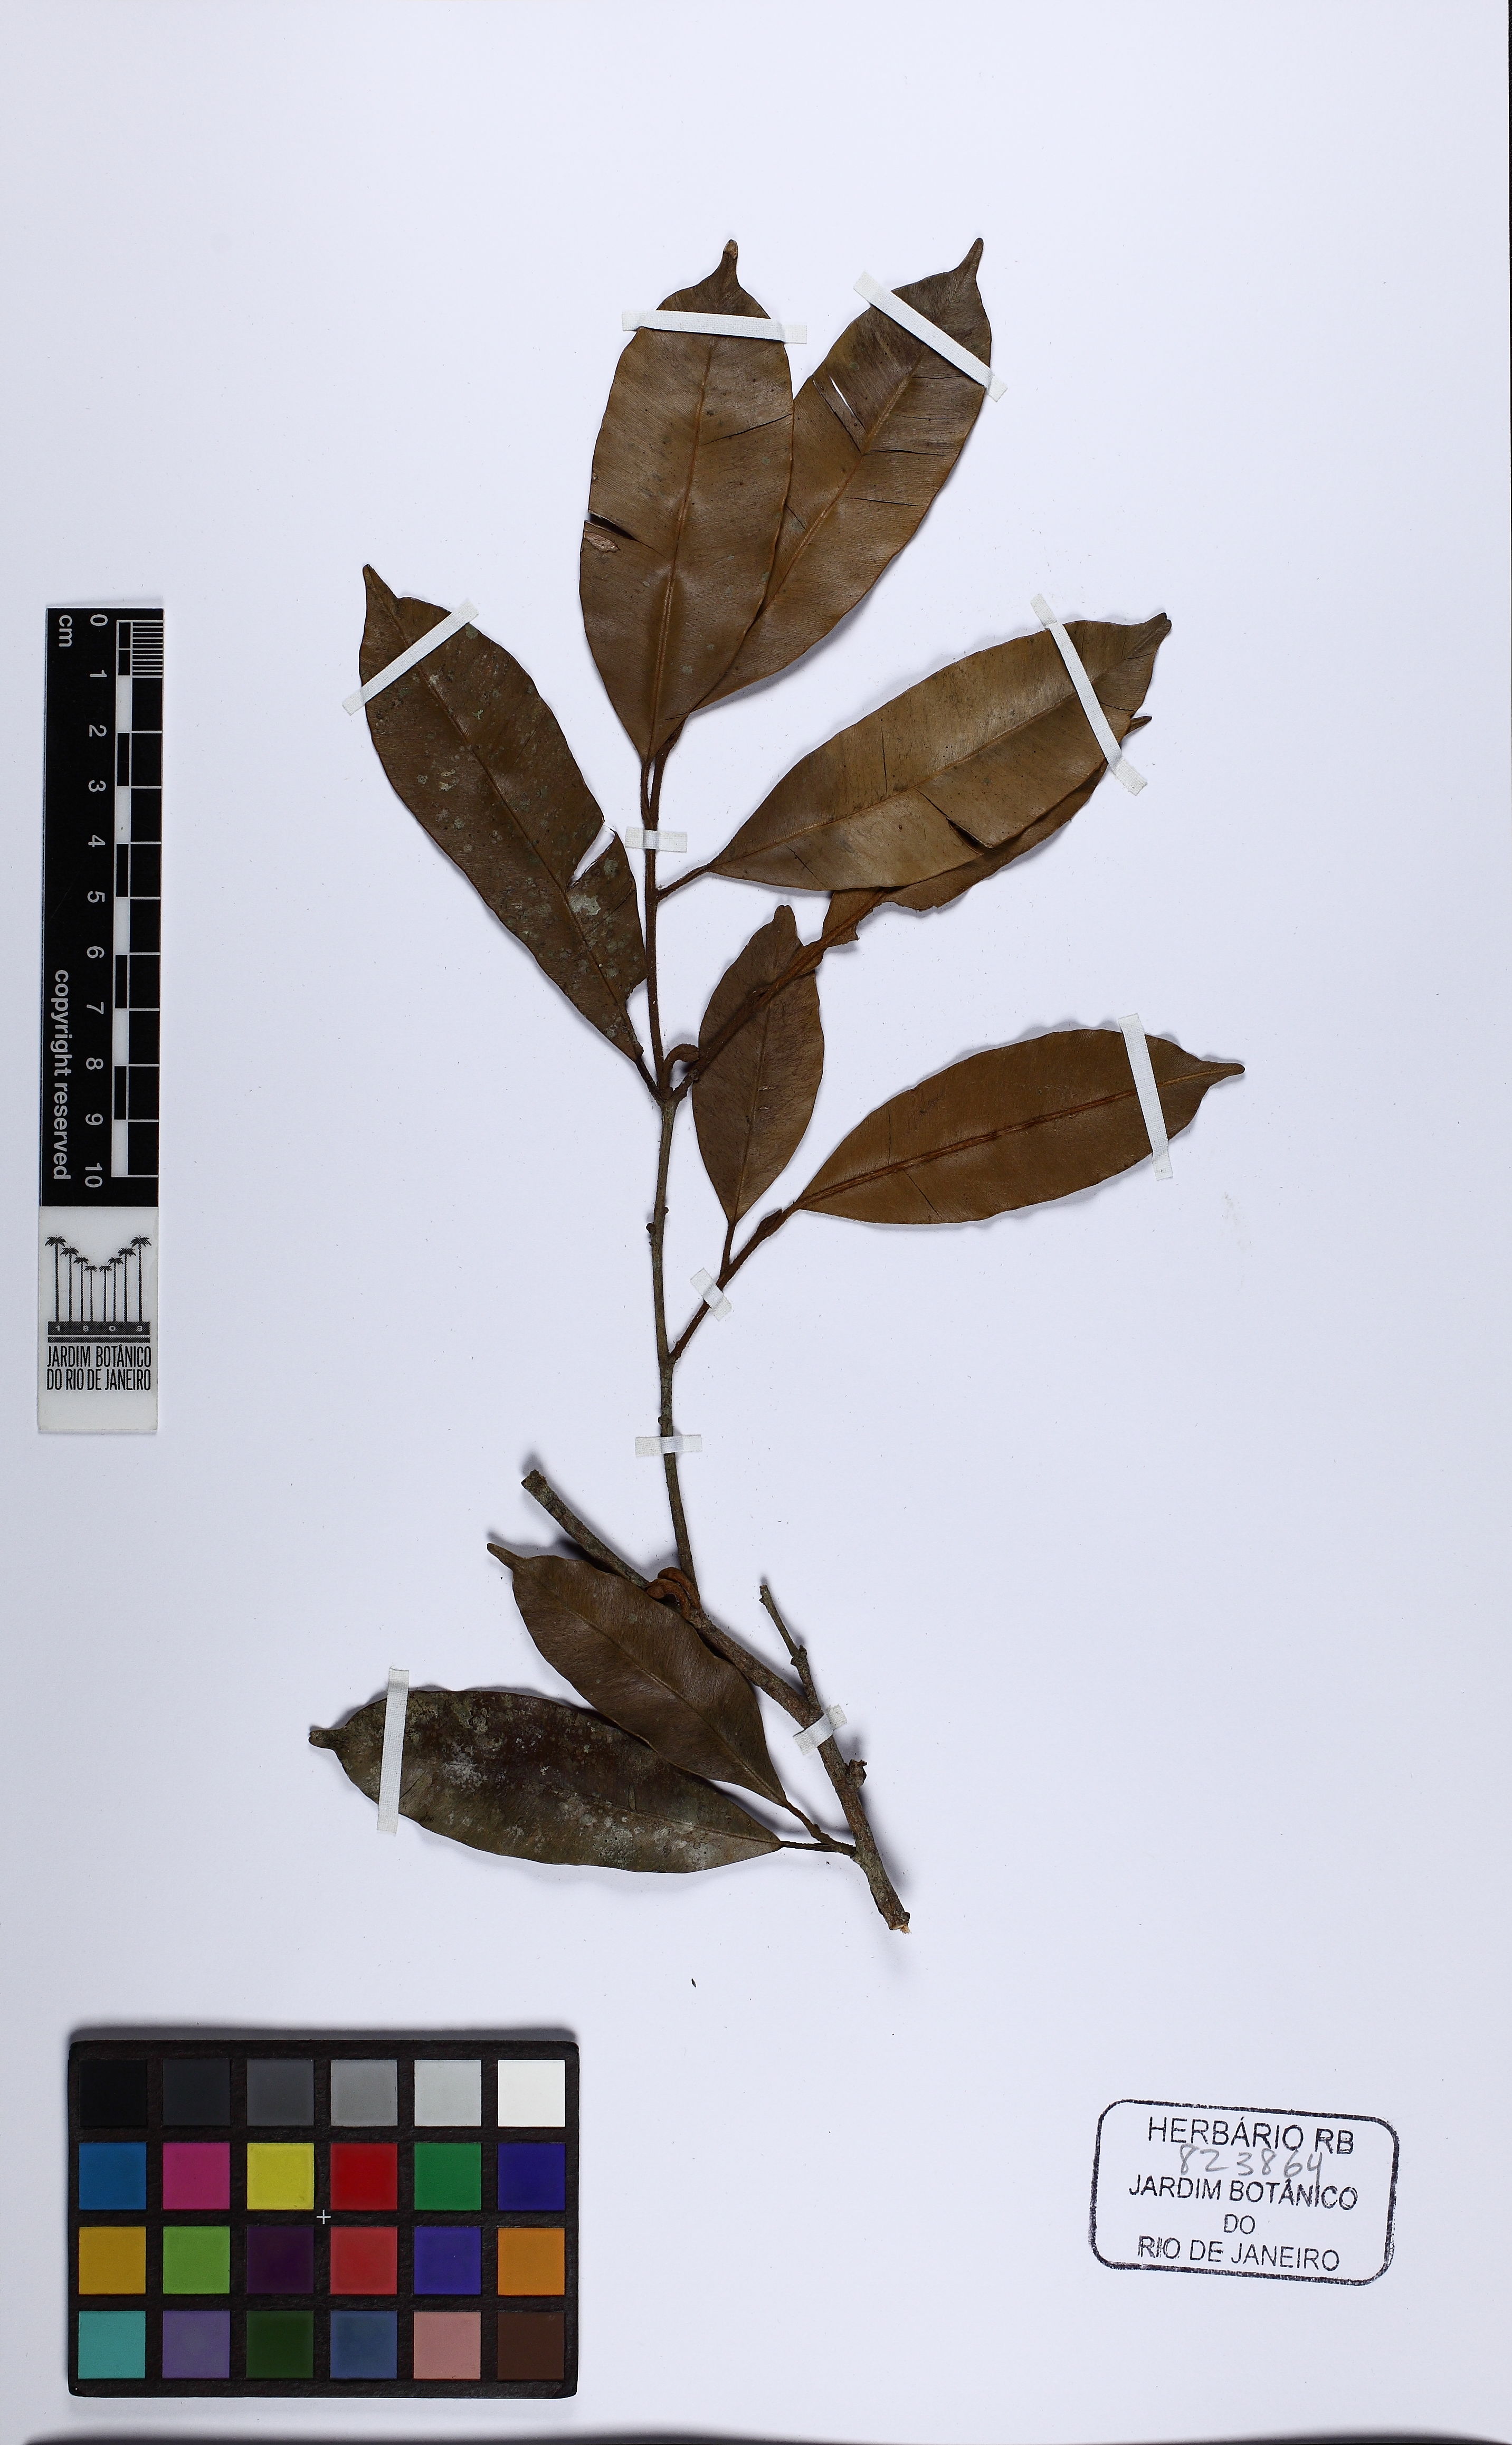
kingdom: Plantae
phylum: Tracheophyta
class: Magnoliopsida
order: Ericales
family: Sapotaceae
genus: Micropholis
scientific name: Micropholis gardneriana
